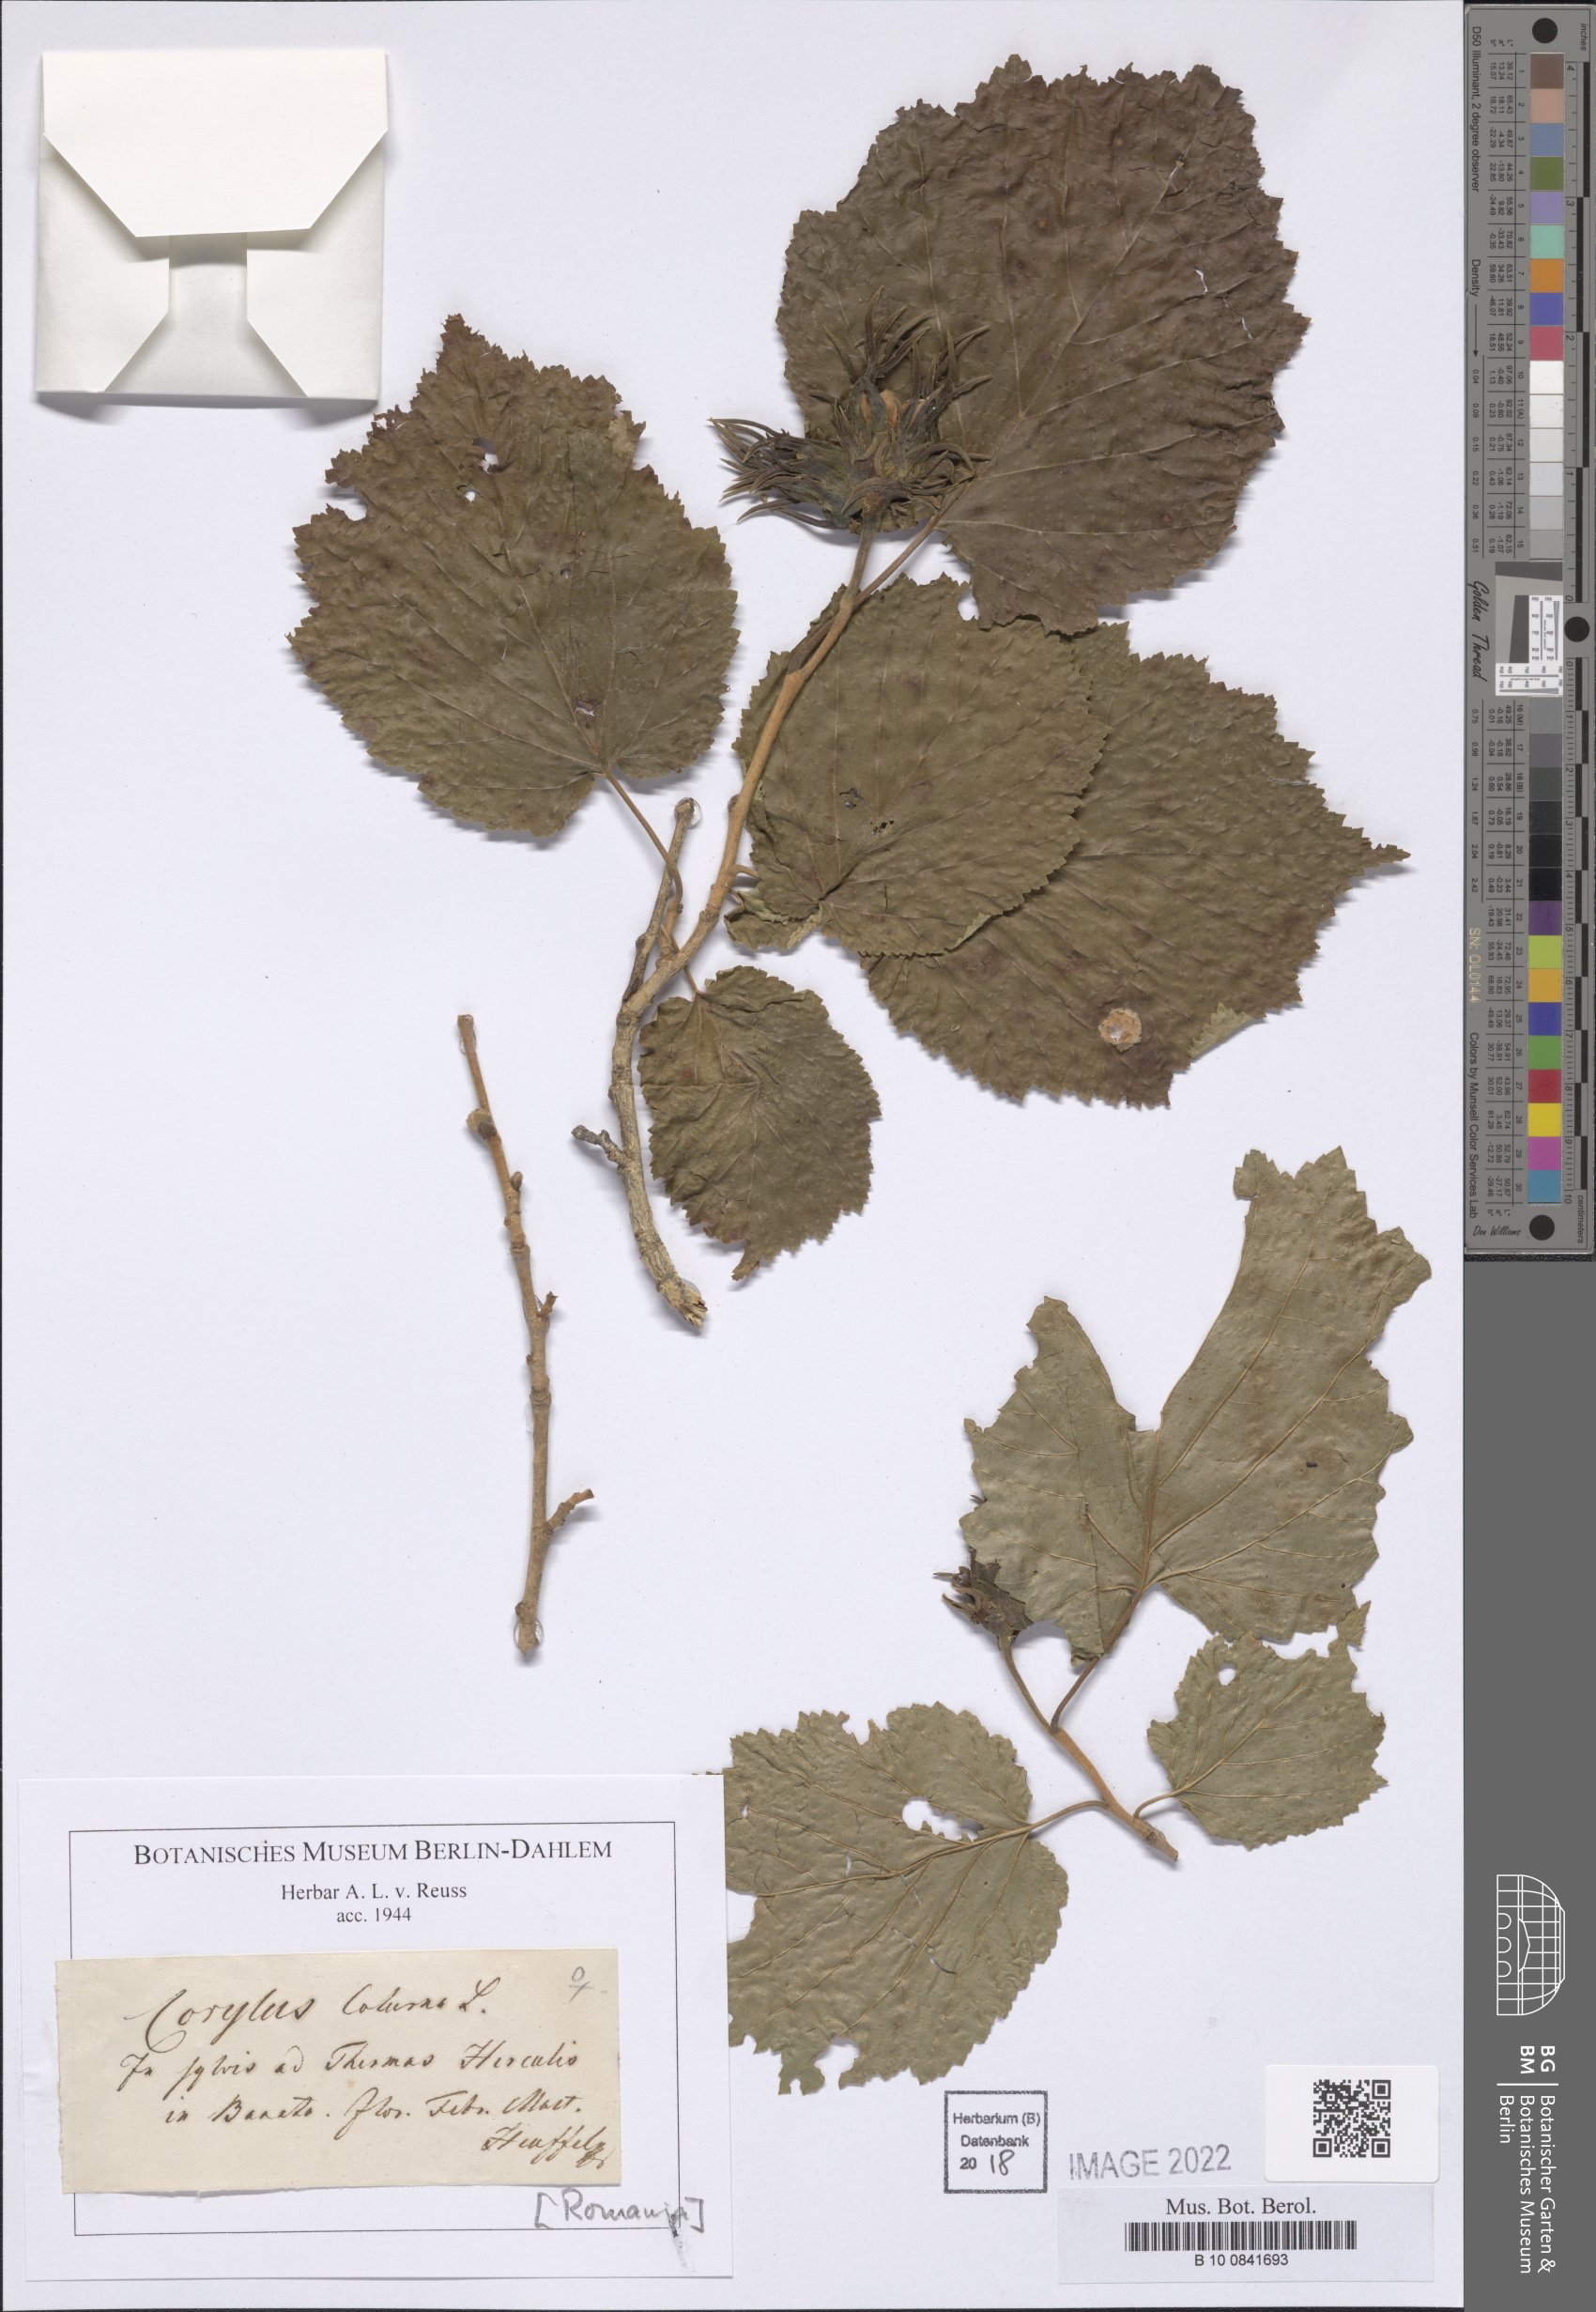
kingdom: Plantae
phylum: Tracheophyta
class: Magnoliopsida
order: Fagales
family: Betulaceae
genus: Carpinus
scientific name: Carpinus orientalis
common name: Eastern hornbeam
